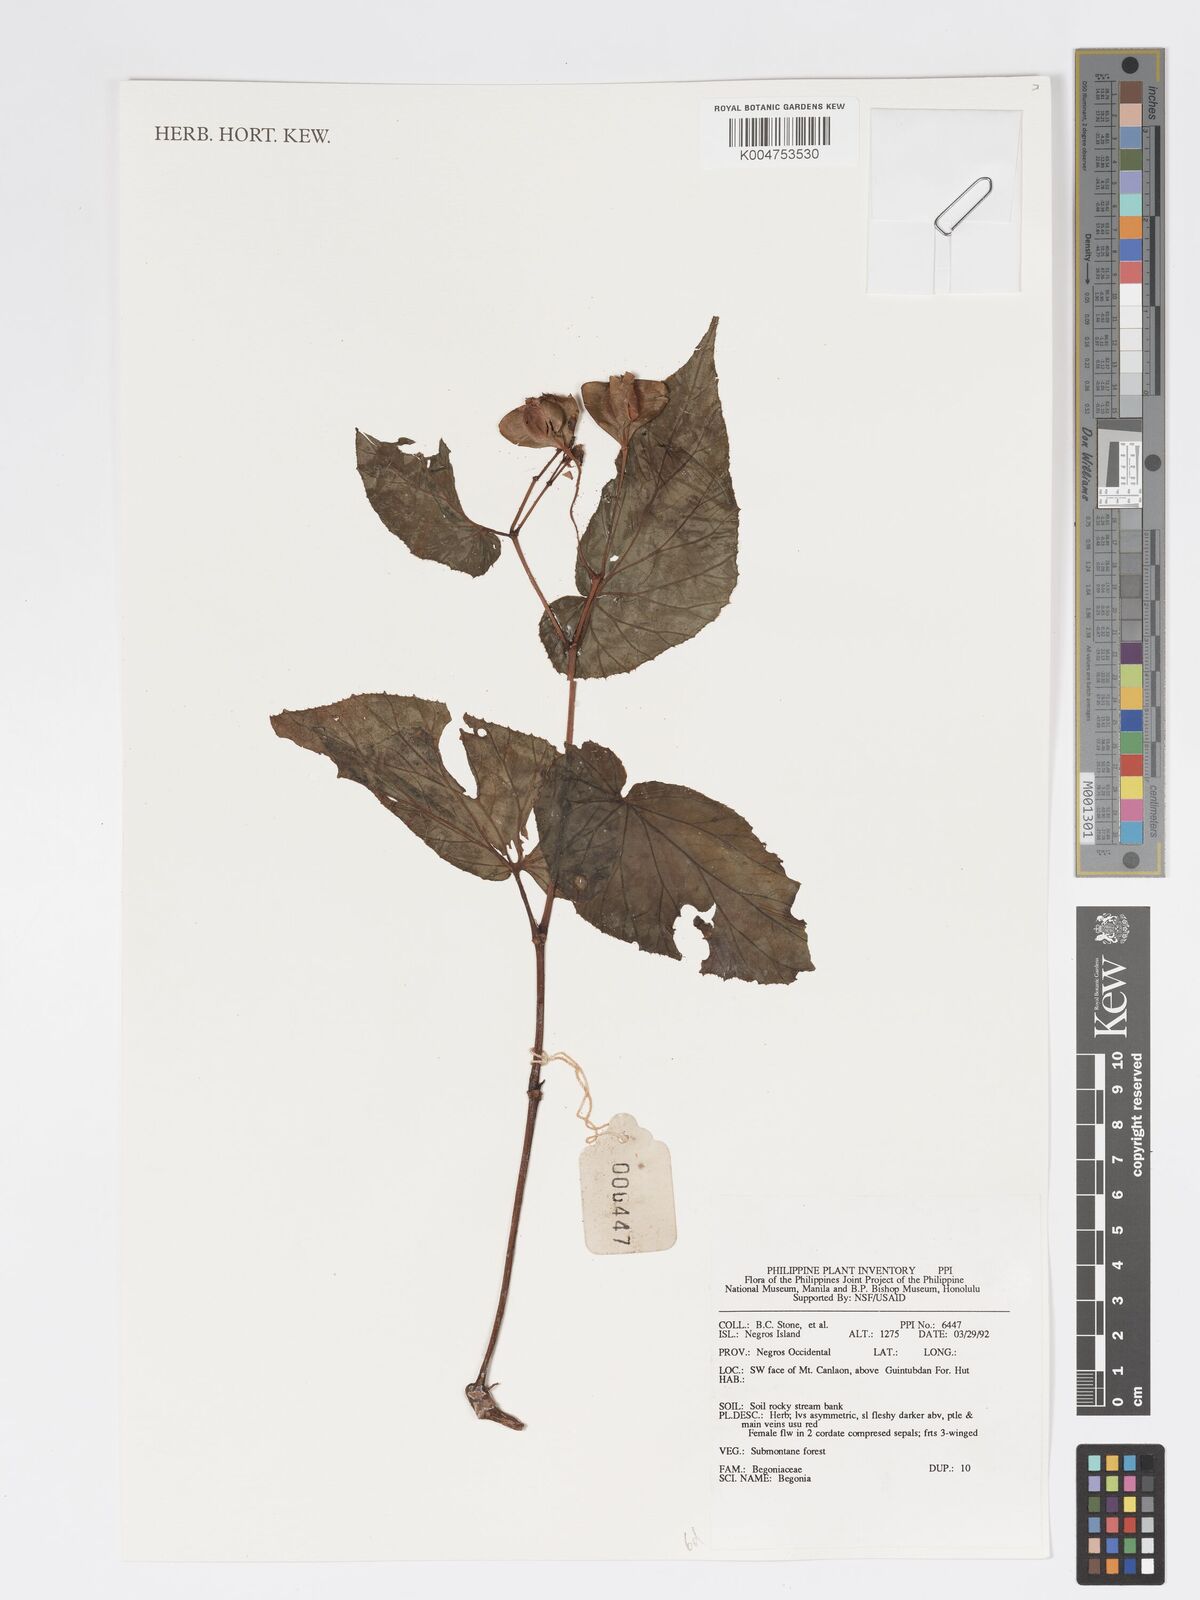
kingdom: Plantae
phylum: Tracheophyta
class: Magnoliopsida
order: Cucurbitales
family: Begoniaceae
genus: Begonia
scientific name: Begonia
